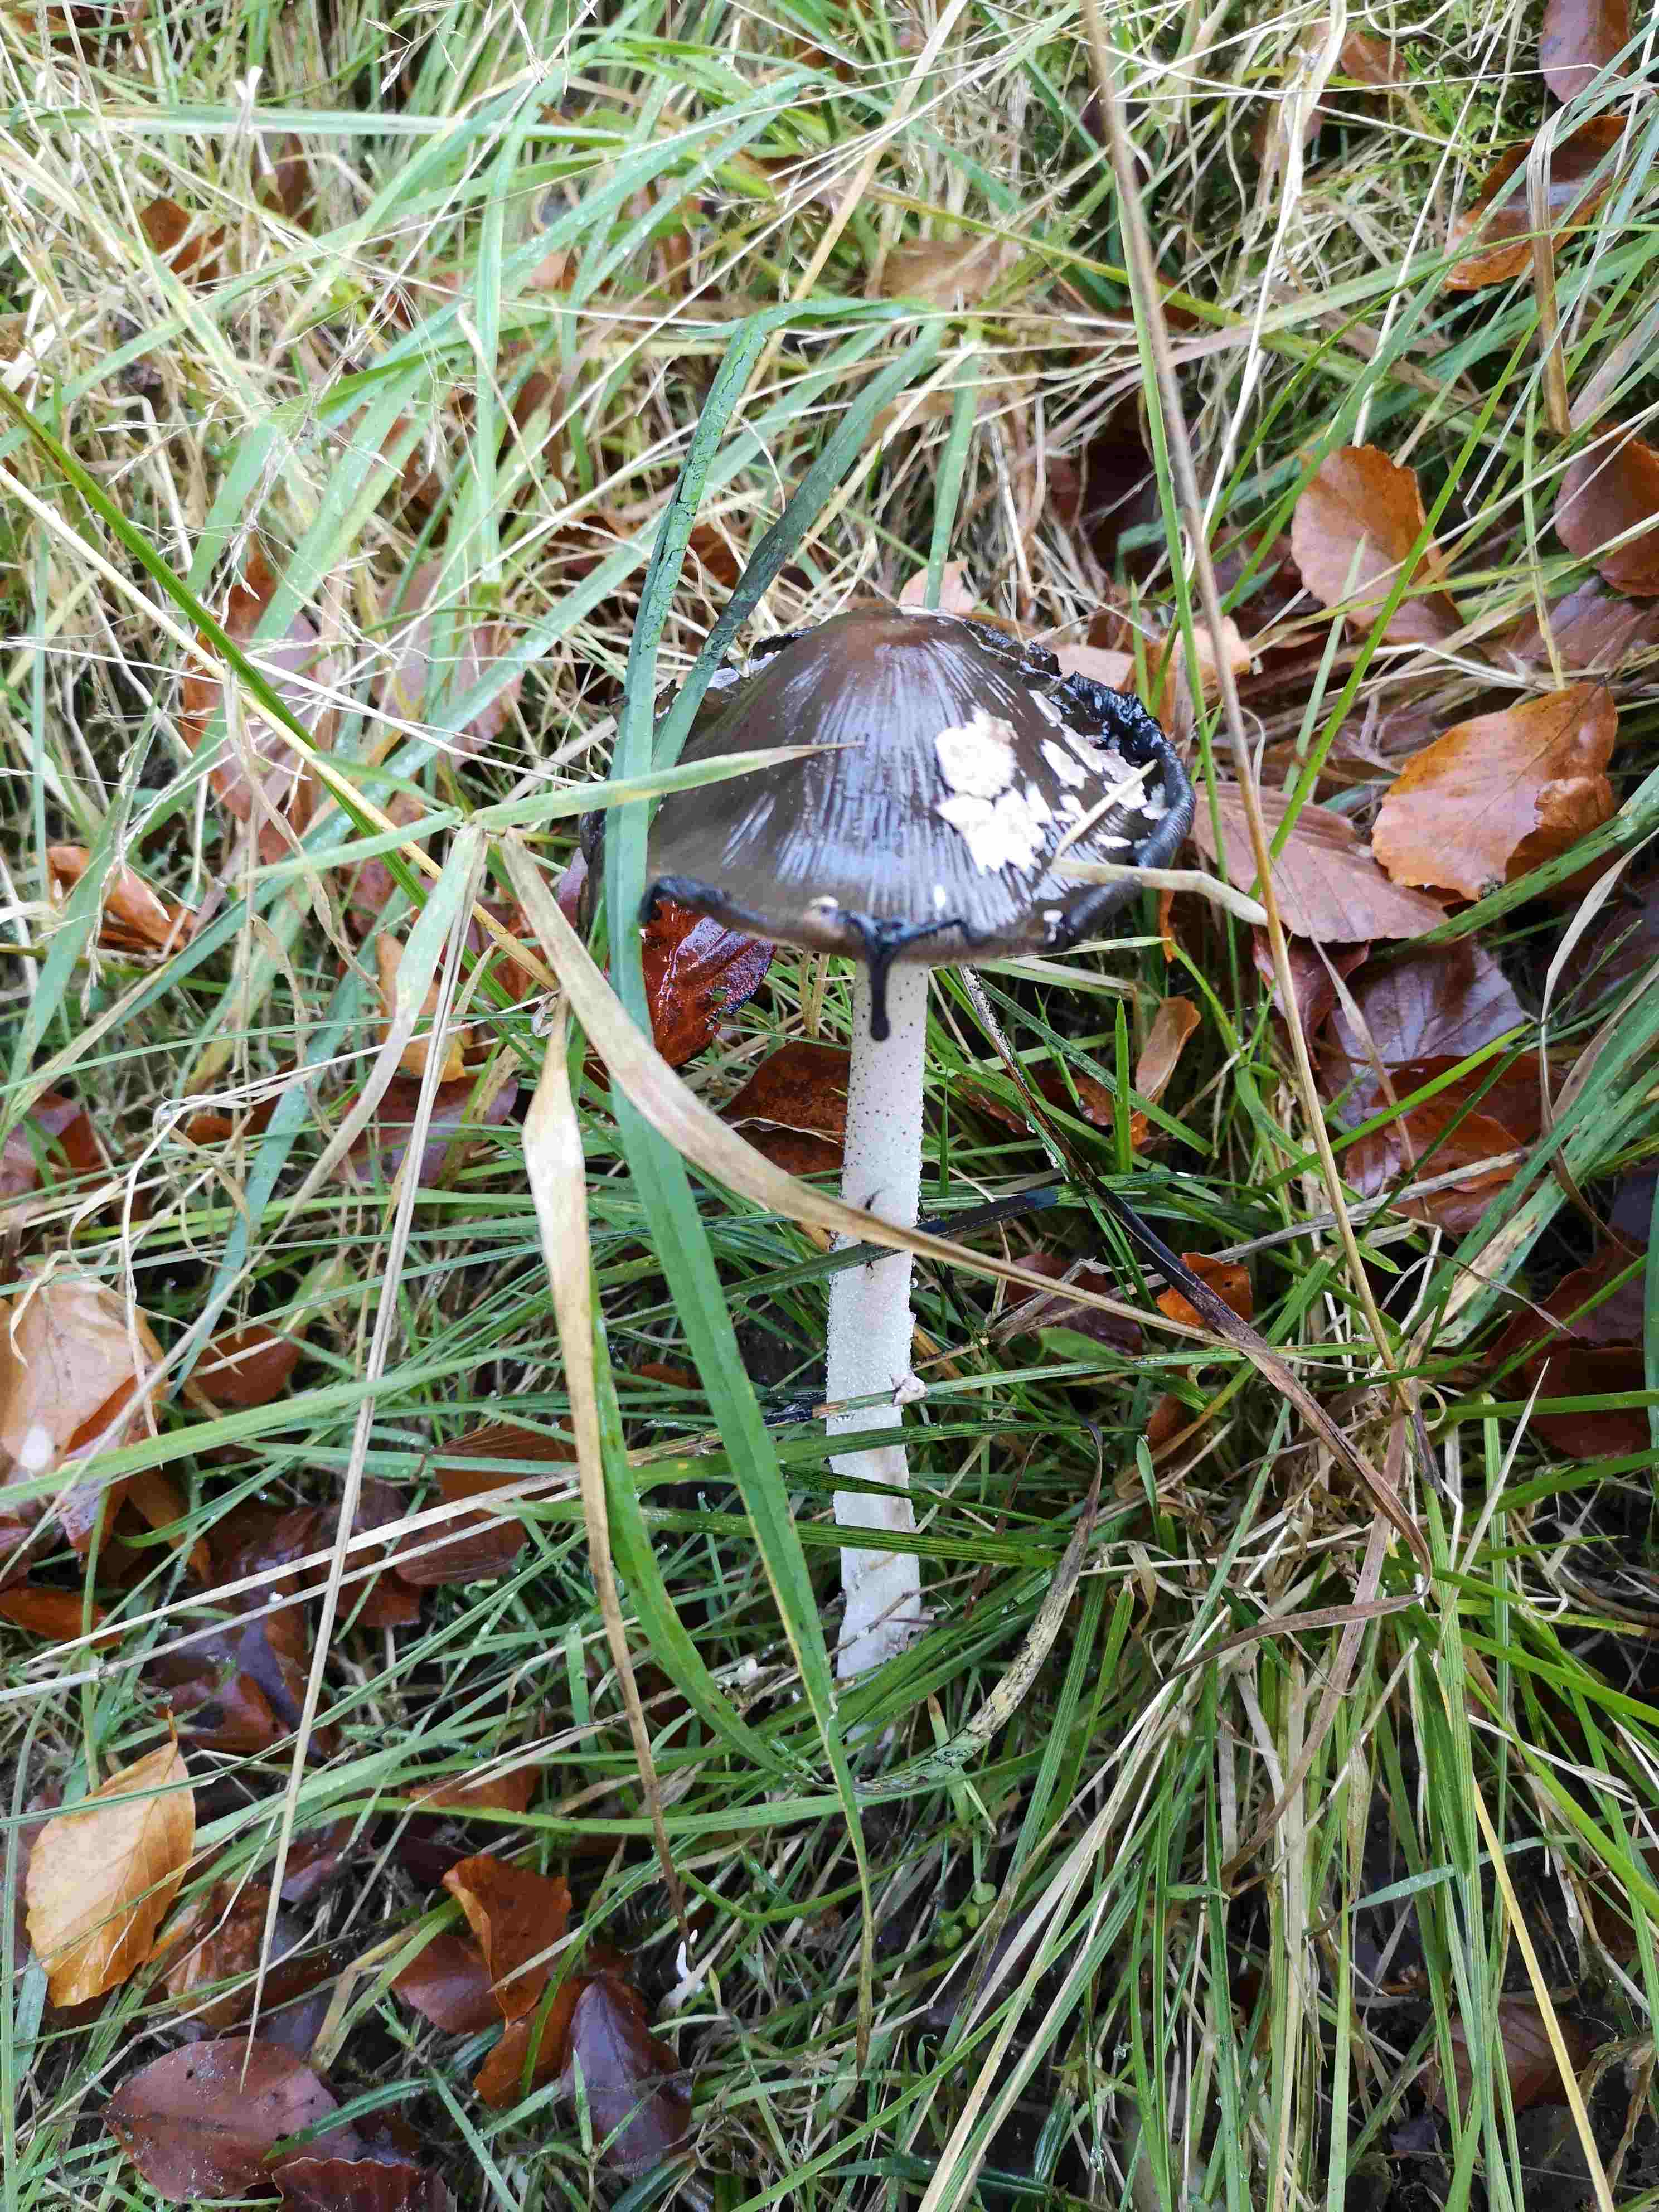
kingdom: Fungi
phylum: Basidiomycota
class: Agaricomycetes
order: Agaricales
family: Psathyrellaceae
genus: Coprinopsis
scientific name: Coprinopsis picacea
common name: skade-blækhat
